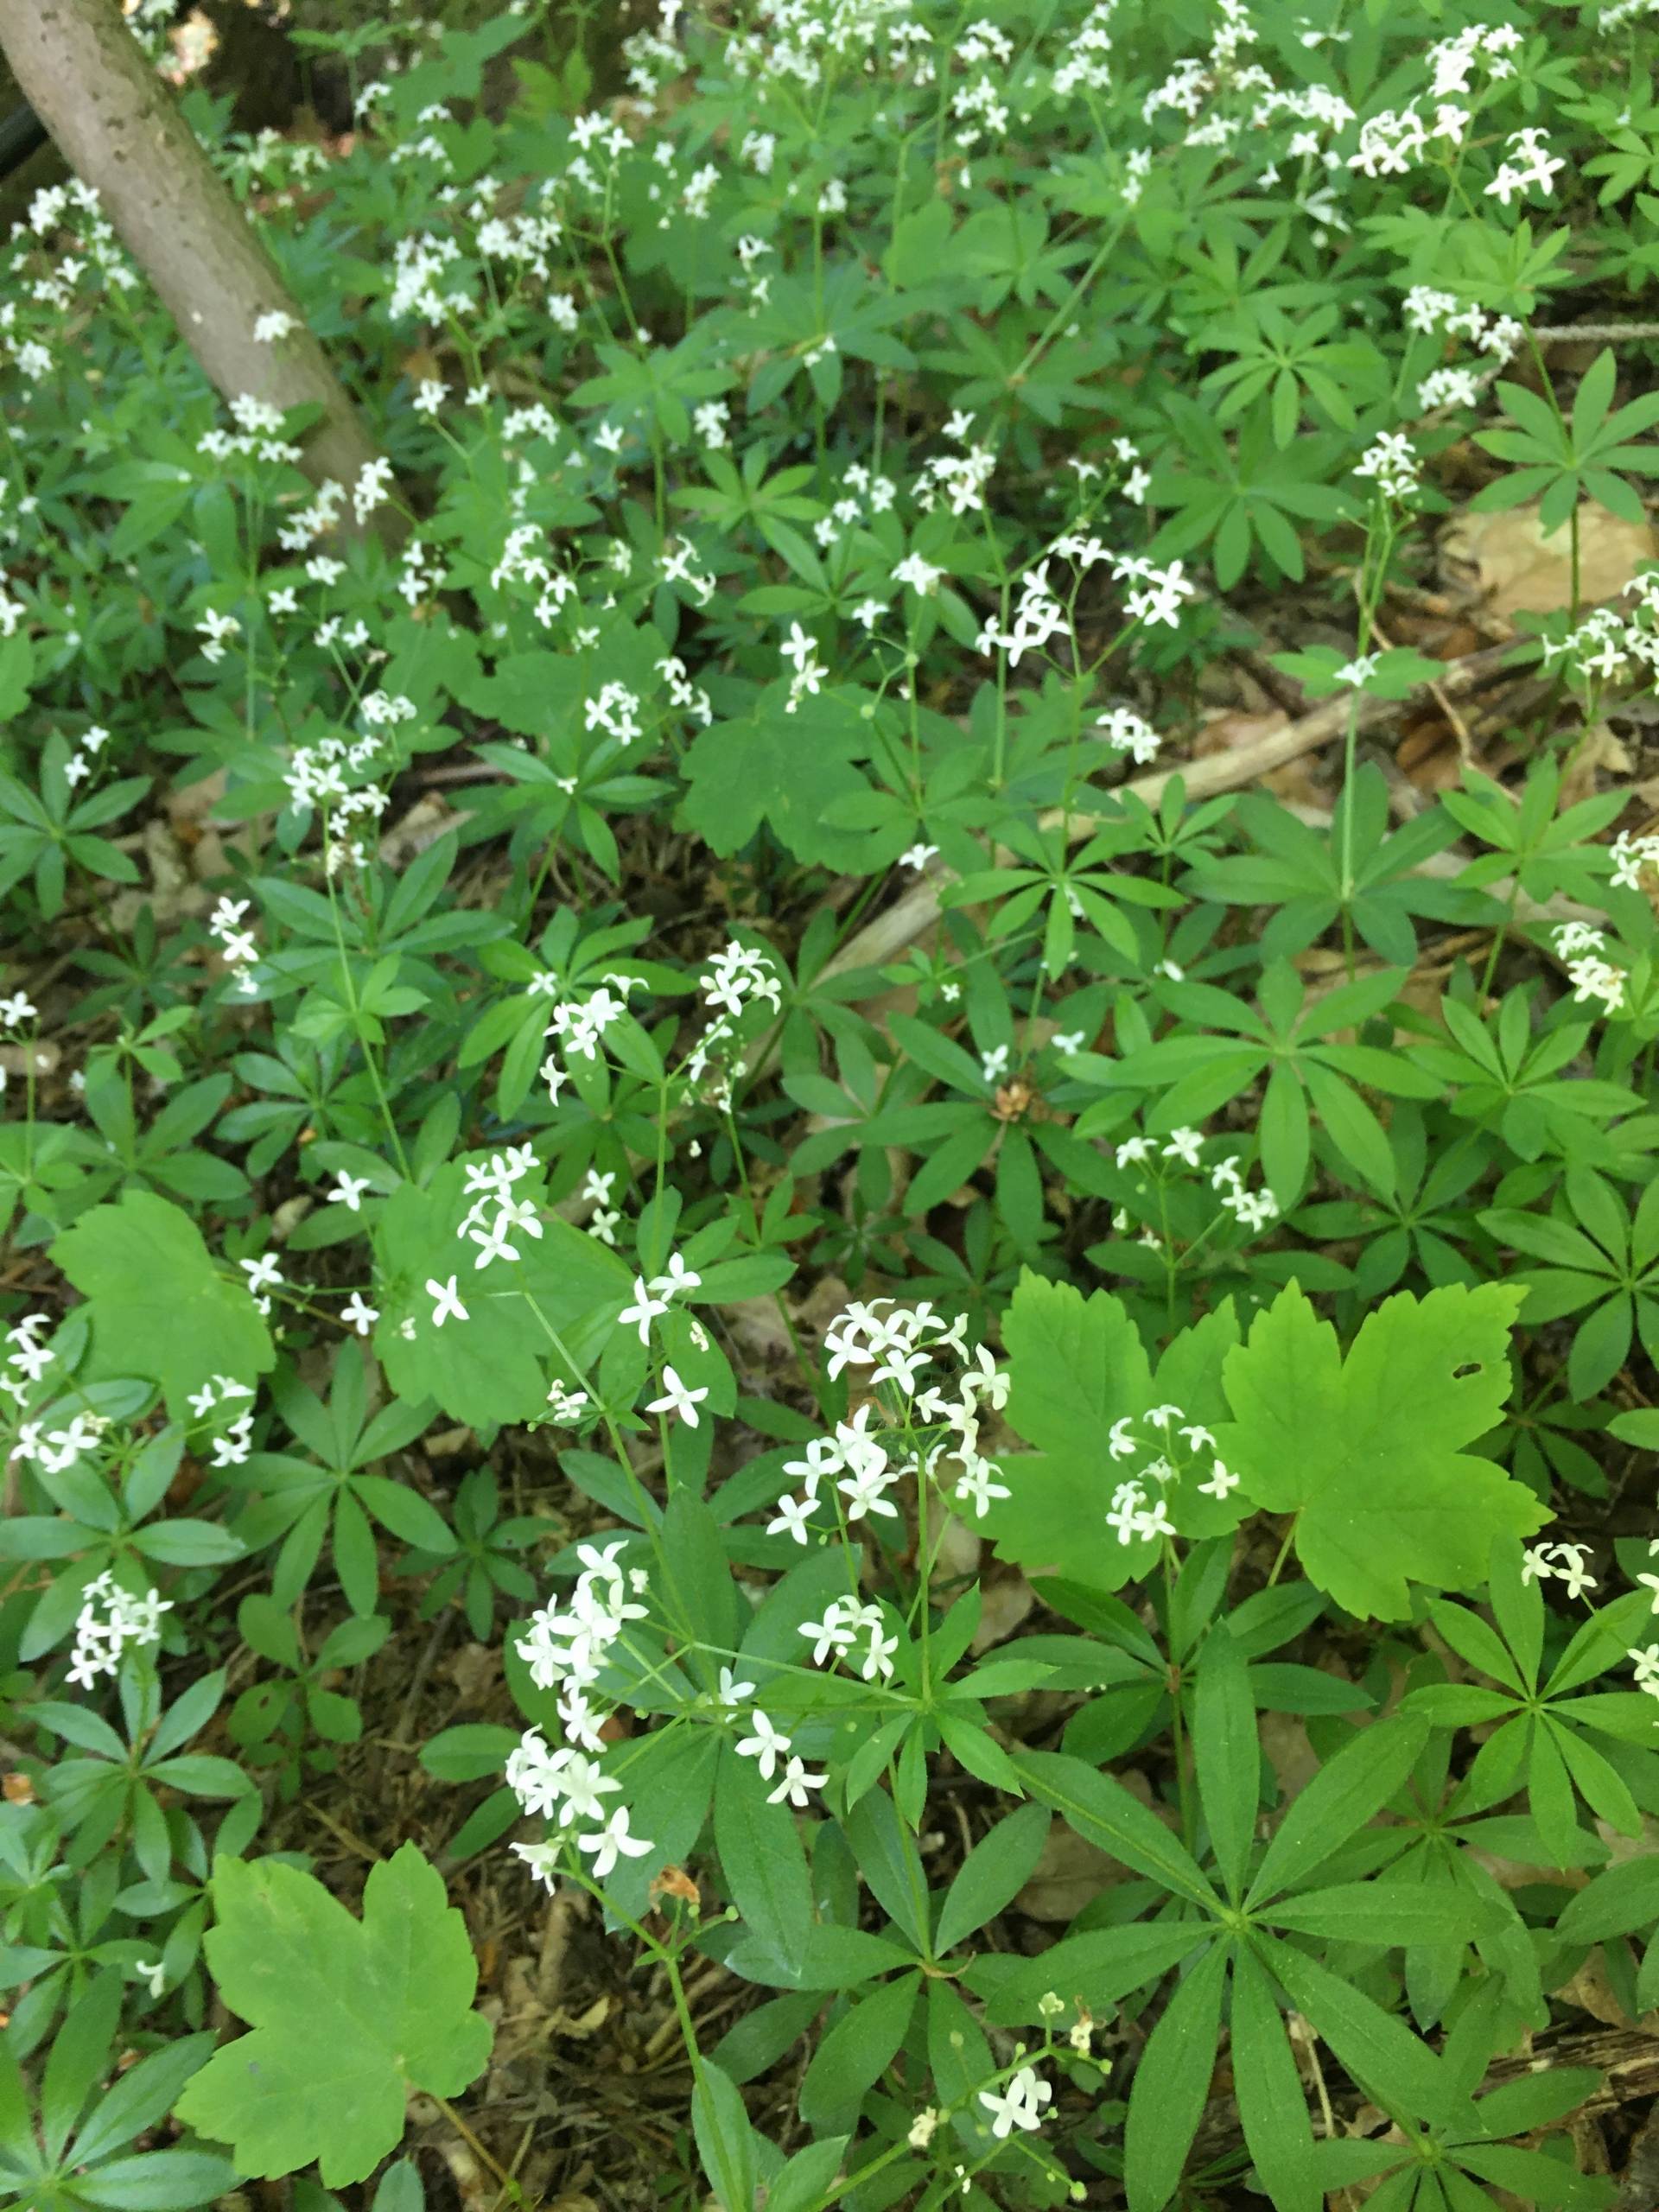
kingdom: Plantae
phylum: Tracheophyta
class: Magnoliopsida
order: Gentianales
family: Rubiaceae
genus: Galium
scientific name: Galium odoratum
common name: Skovmærke
